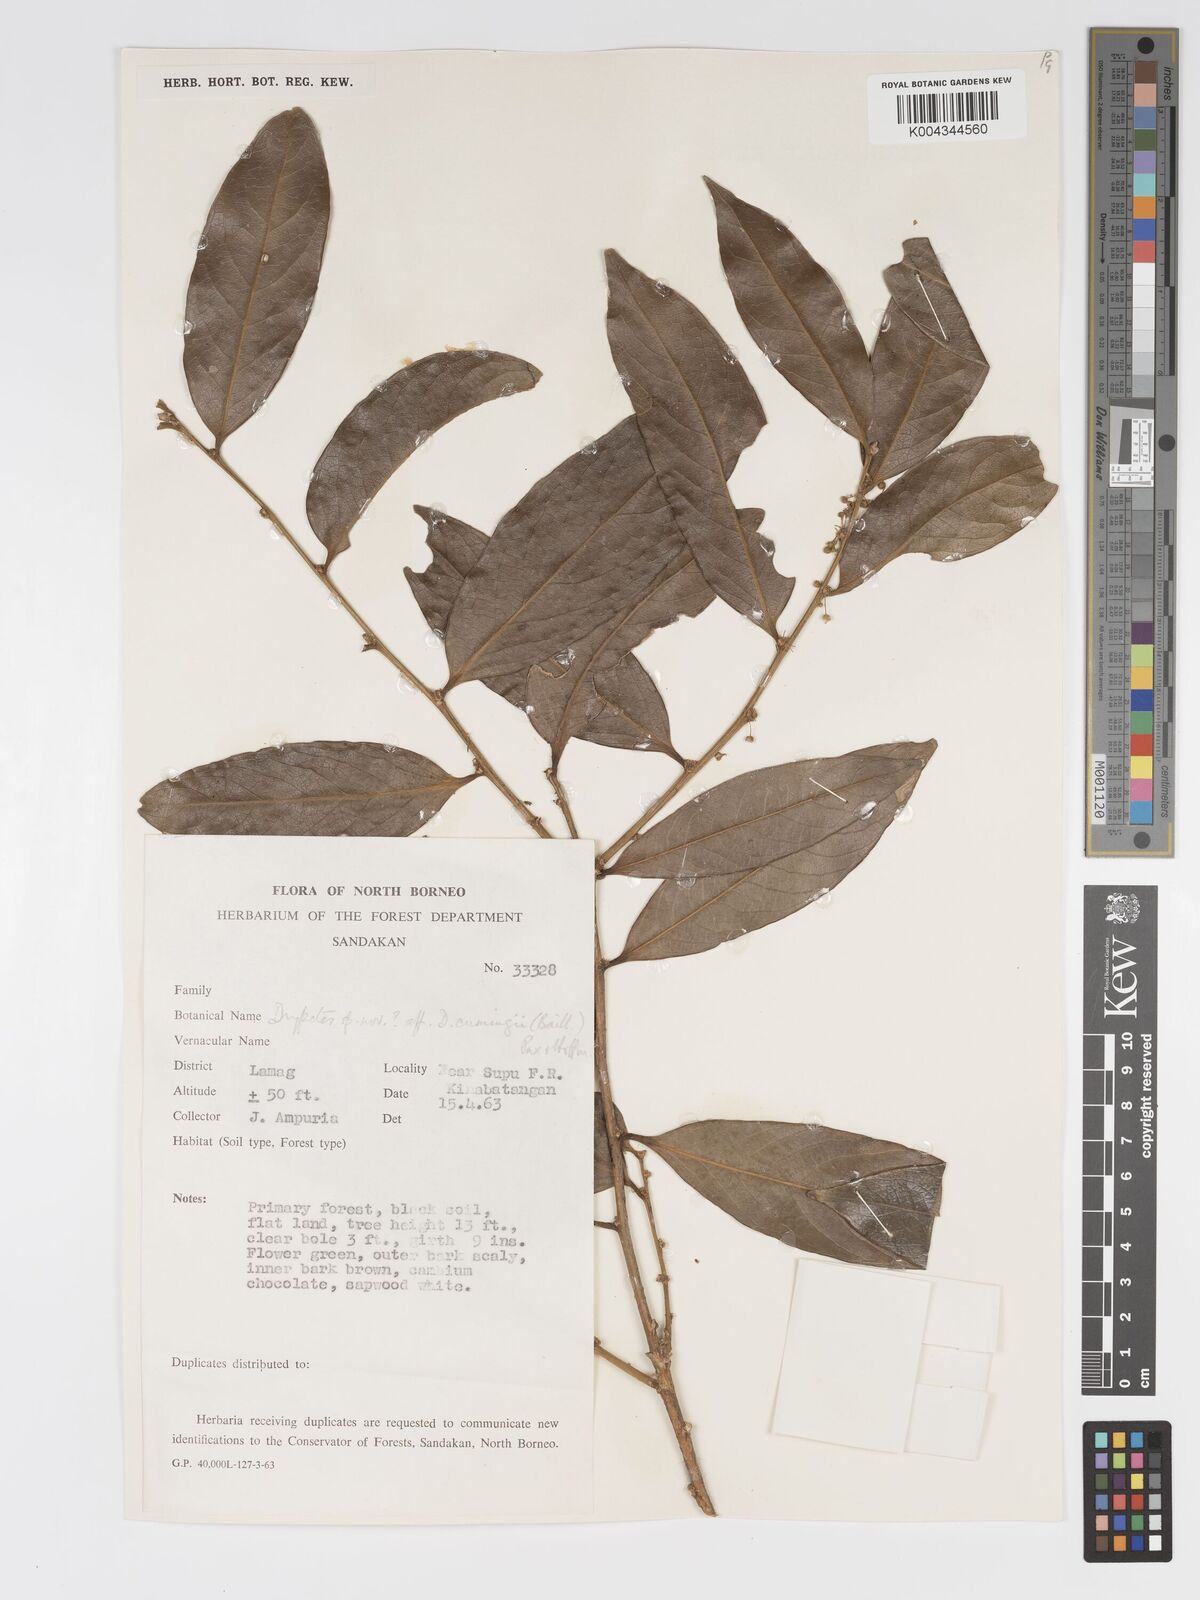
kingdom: Plantae
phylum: Tracheophyta
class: Magnoliopsida
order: Malpighiales
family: Putranjivaceae
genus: Drypetes
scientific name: Drypetes neglecta
